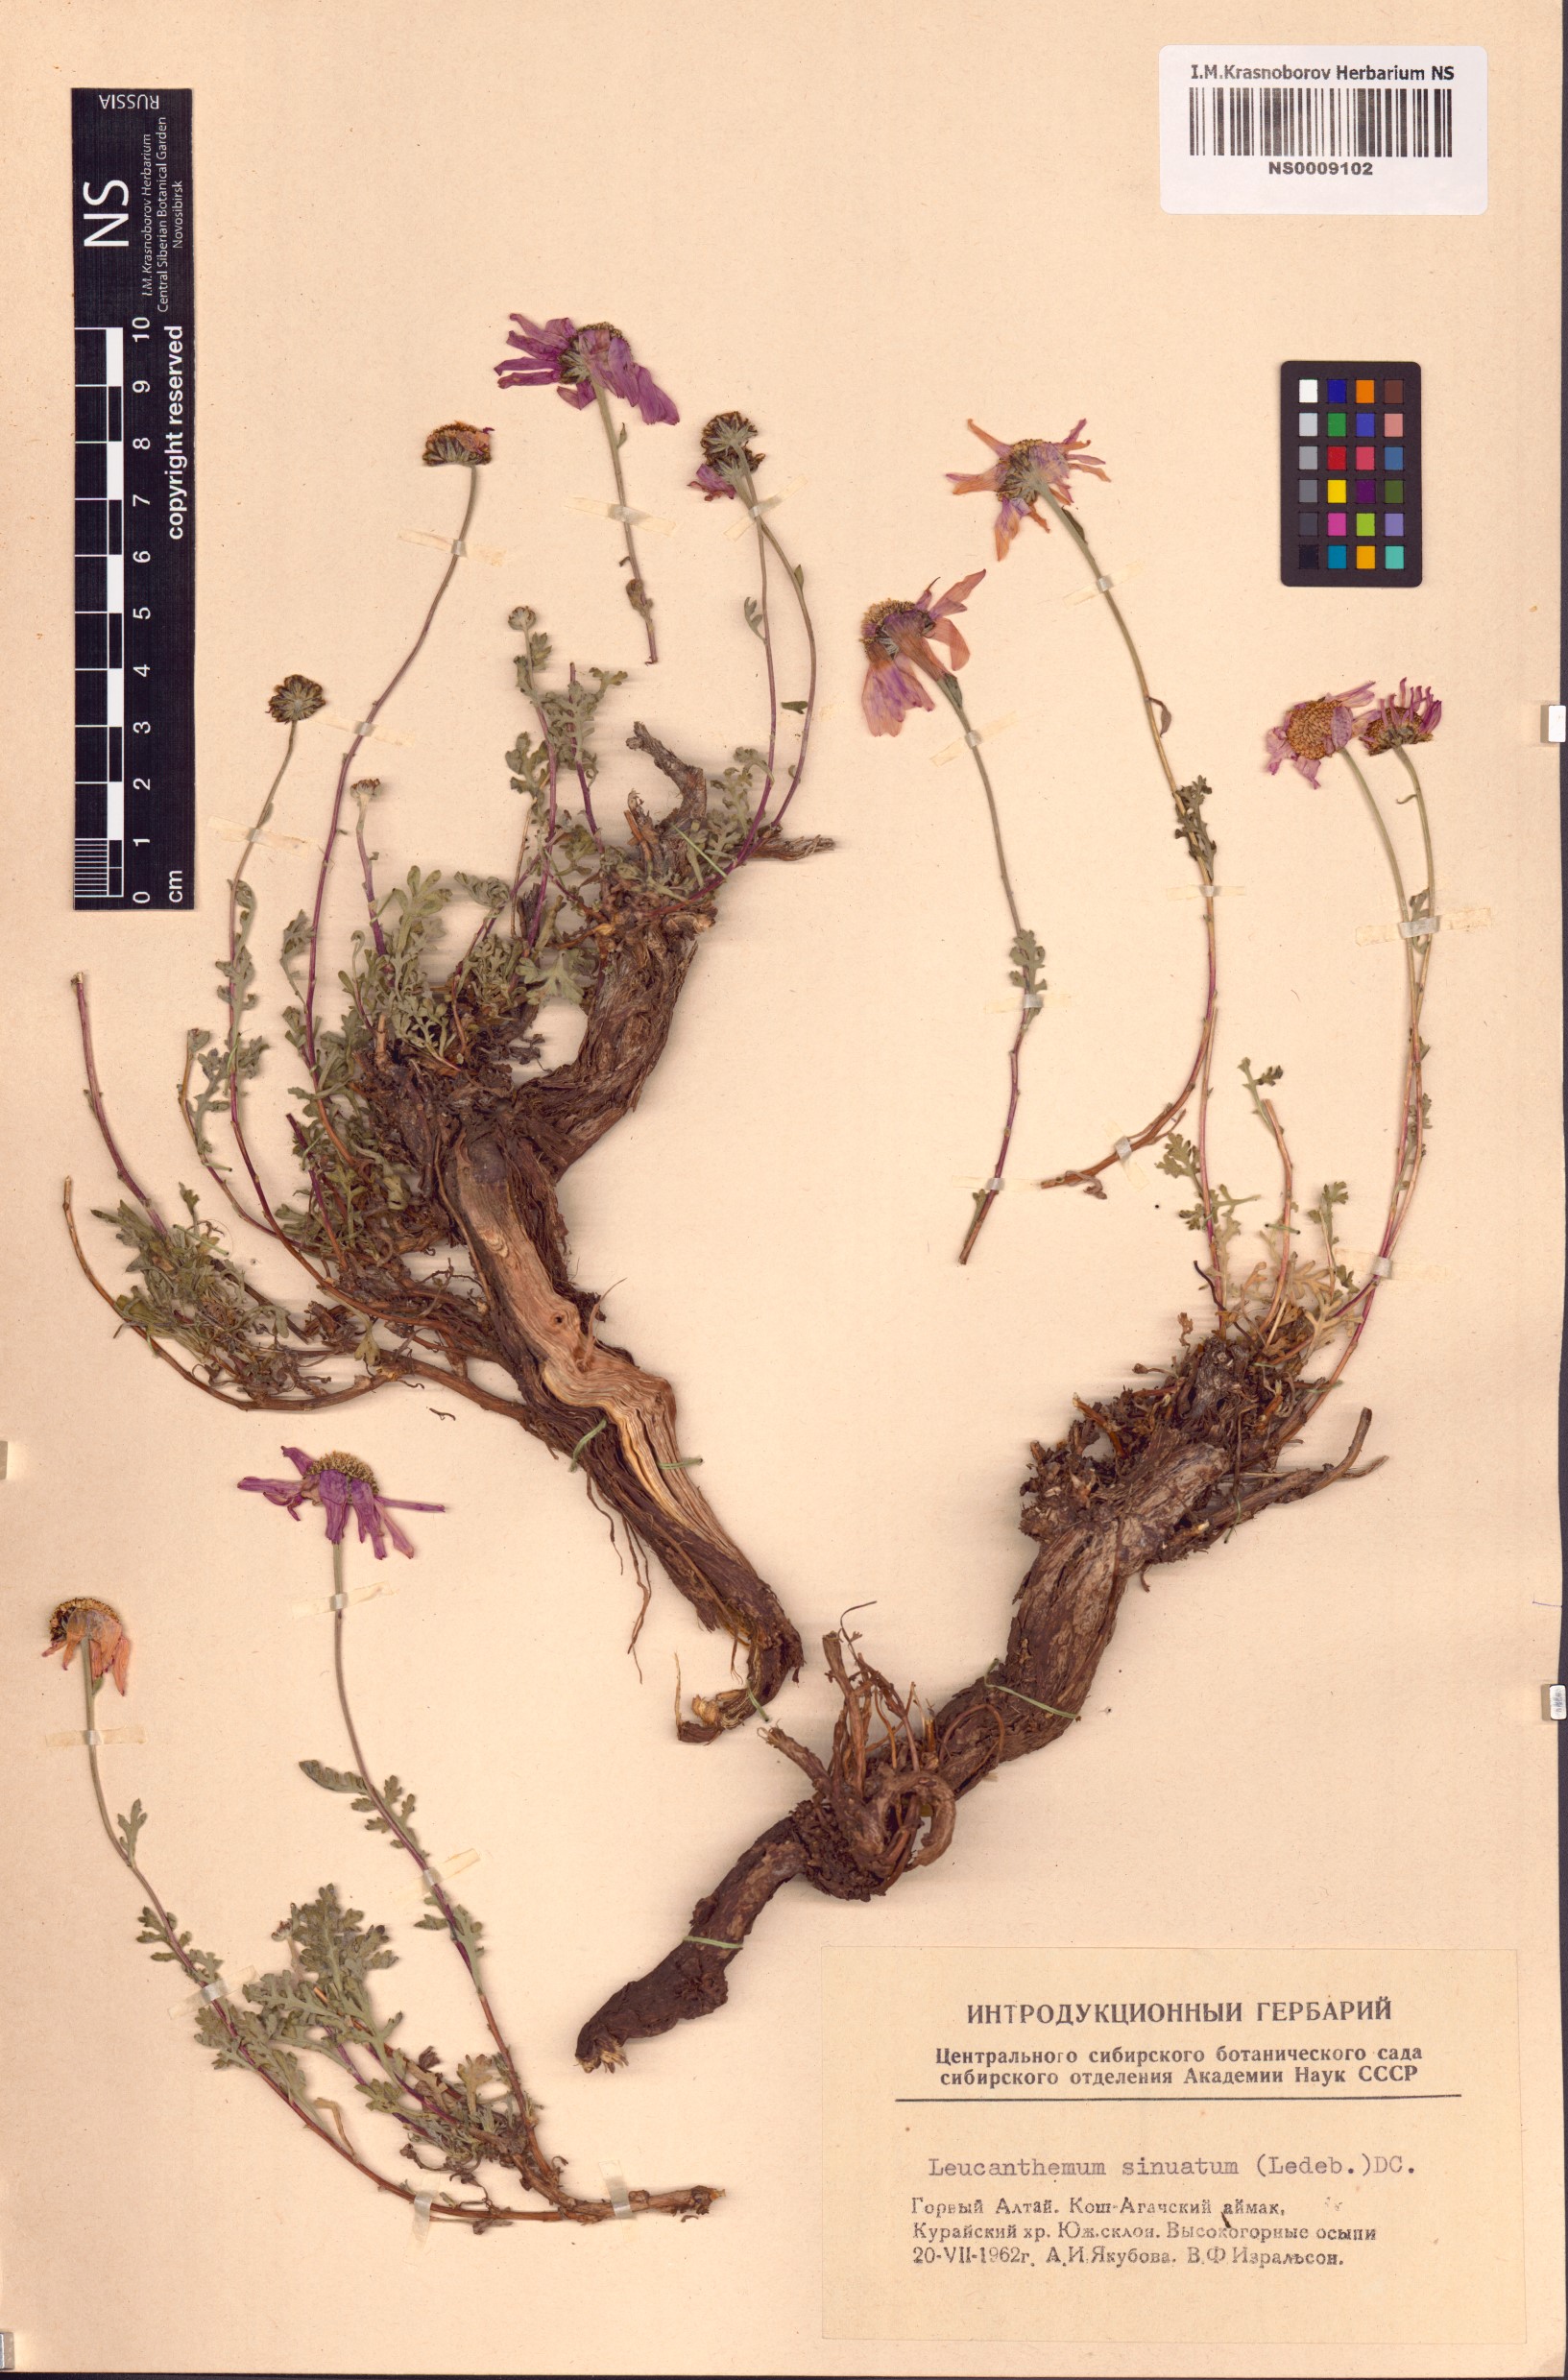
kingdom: Plantae
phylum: Tracheophyta
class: Magnoliopsida
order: Asterales
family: Asteraceae
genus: Chrysanthemum
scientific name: Chrysanthemum sinuatum
